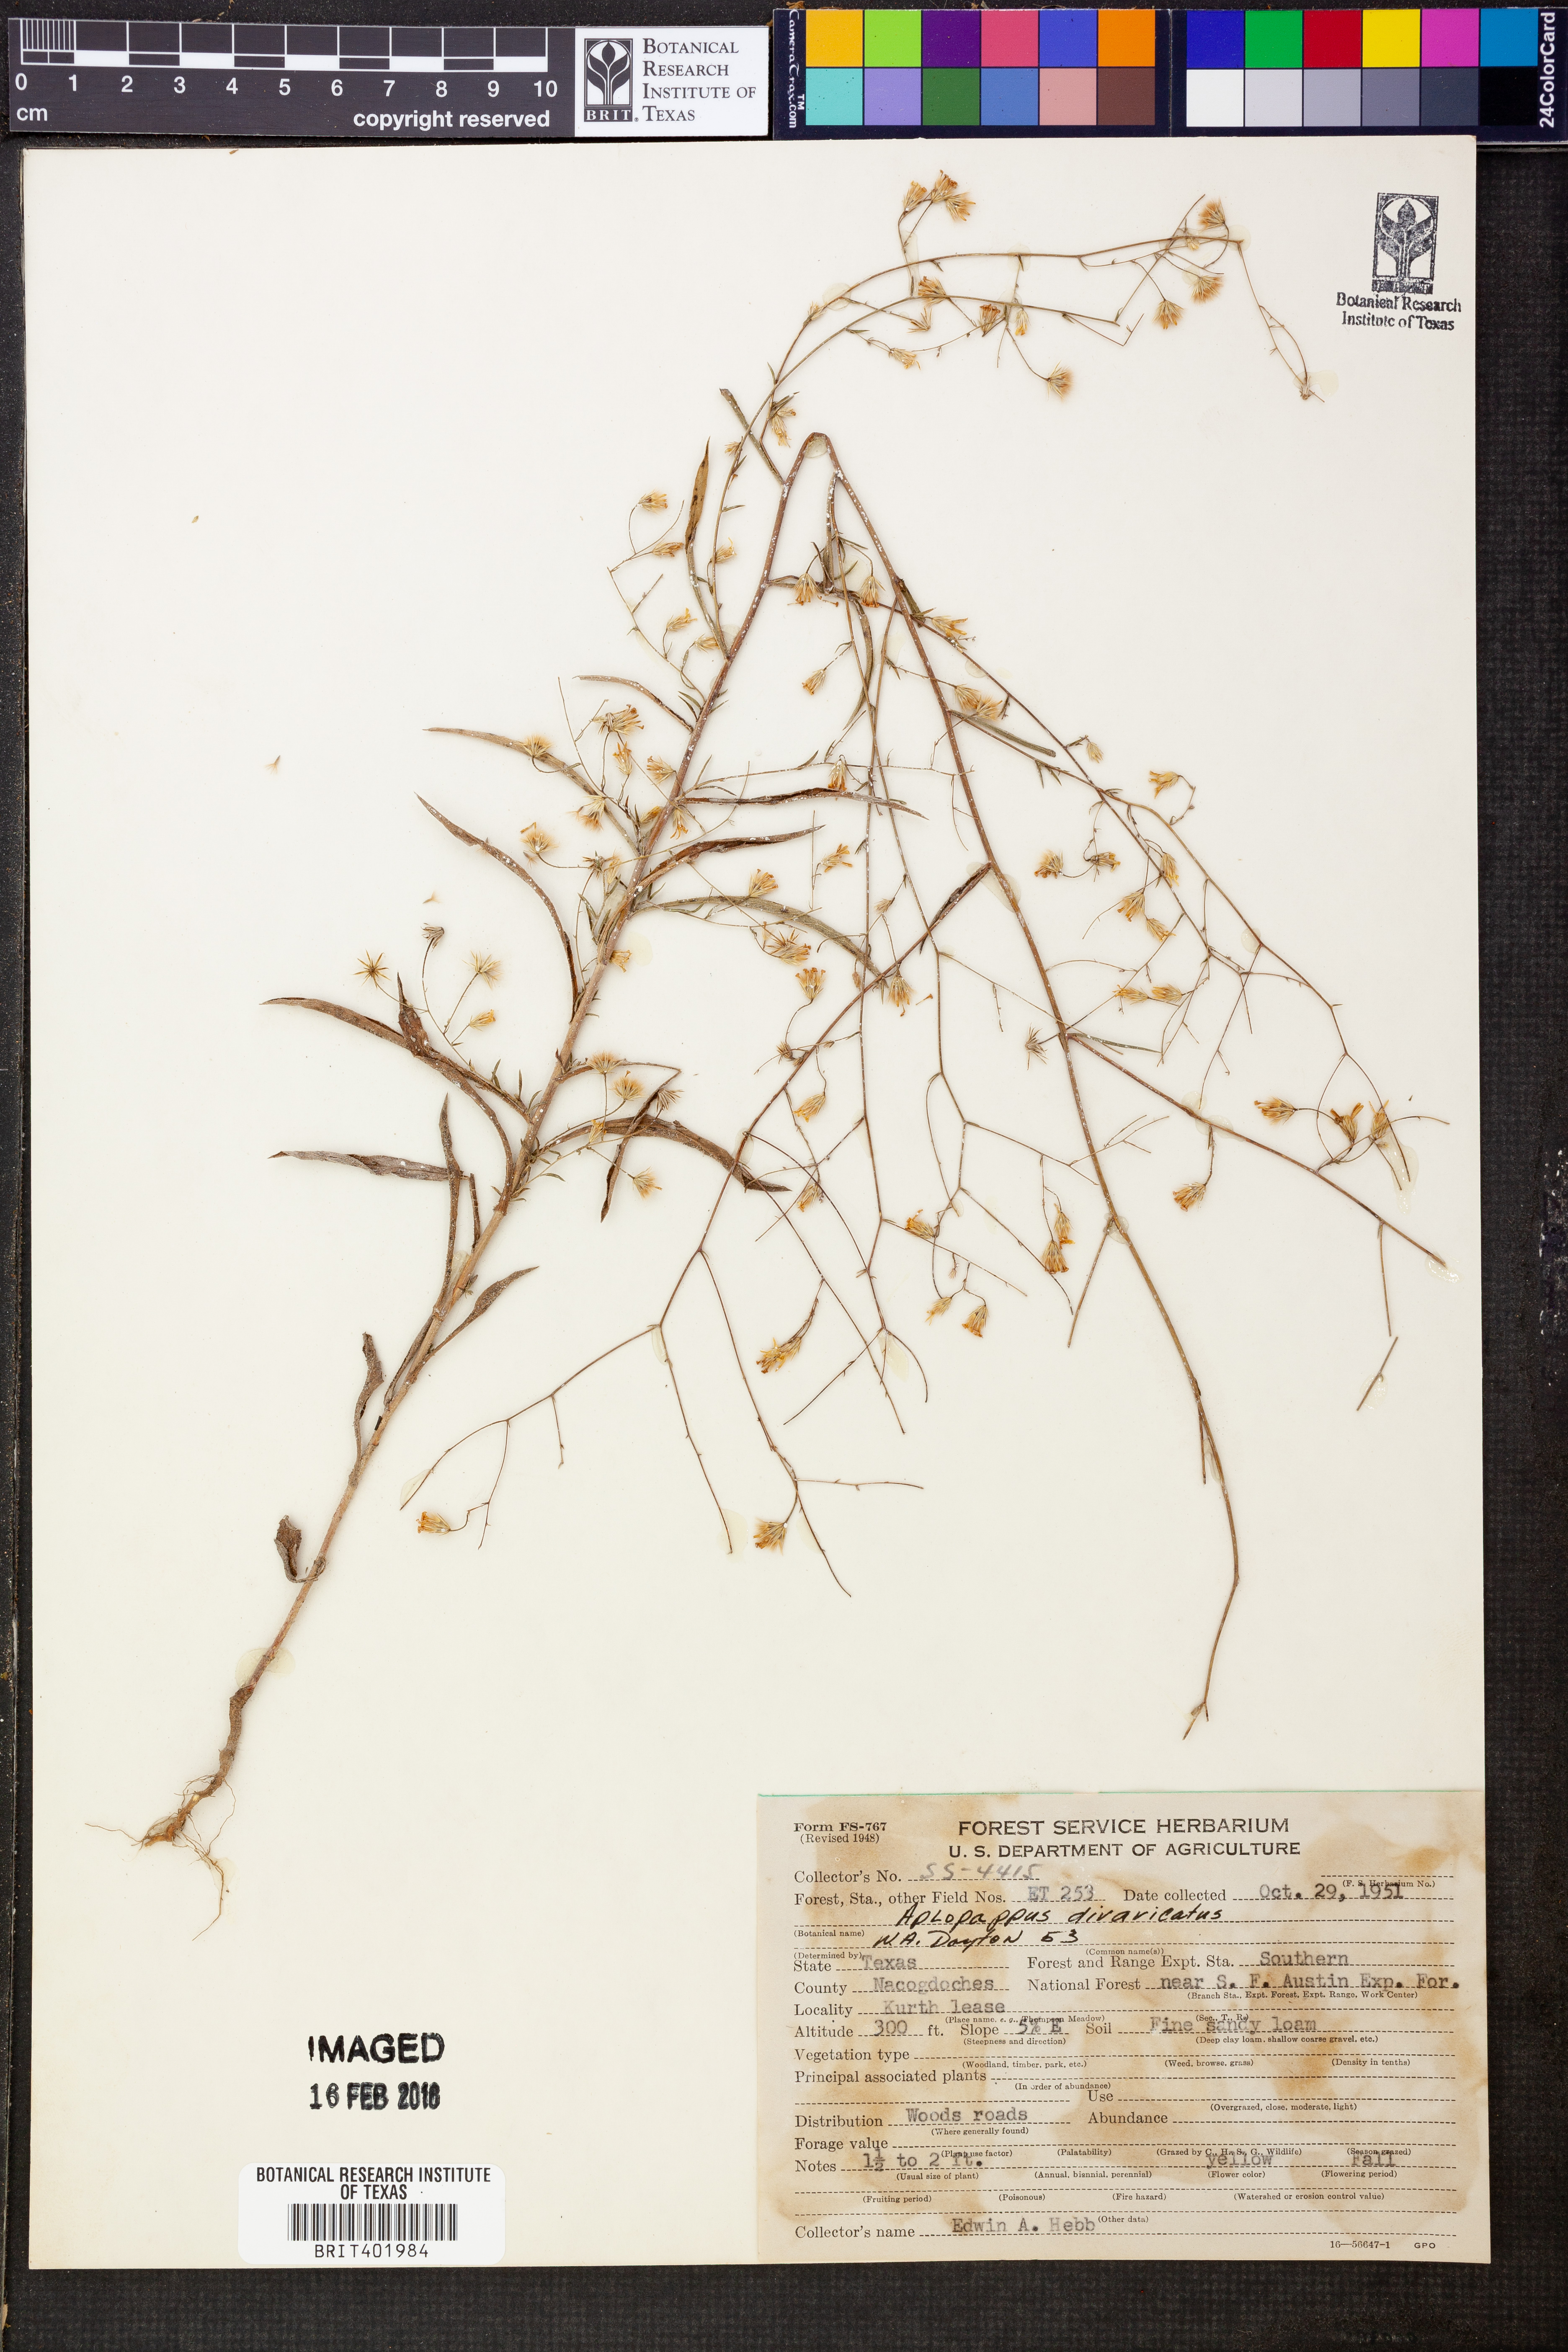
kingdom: Plantae
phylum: Tracheophyta
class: Magnoliopsida
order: Asterales
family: Asteraceae
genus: Croptilon
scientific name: Croptilon divaricatum
